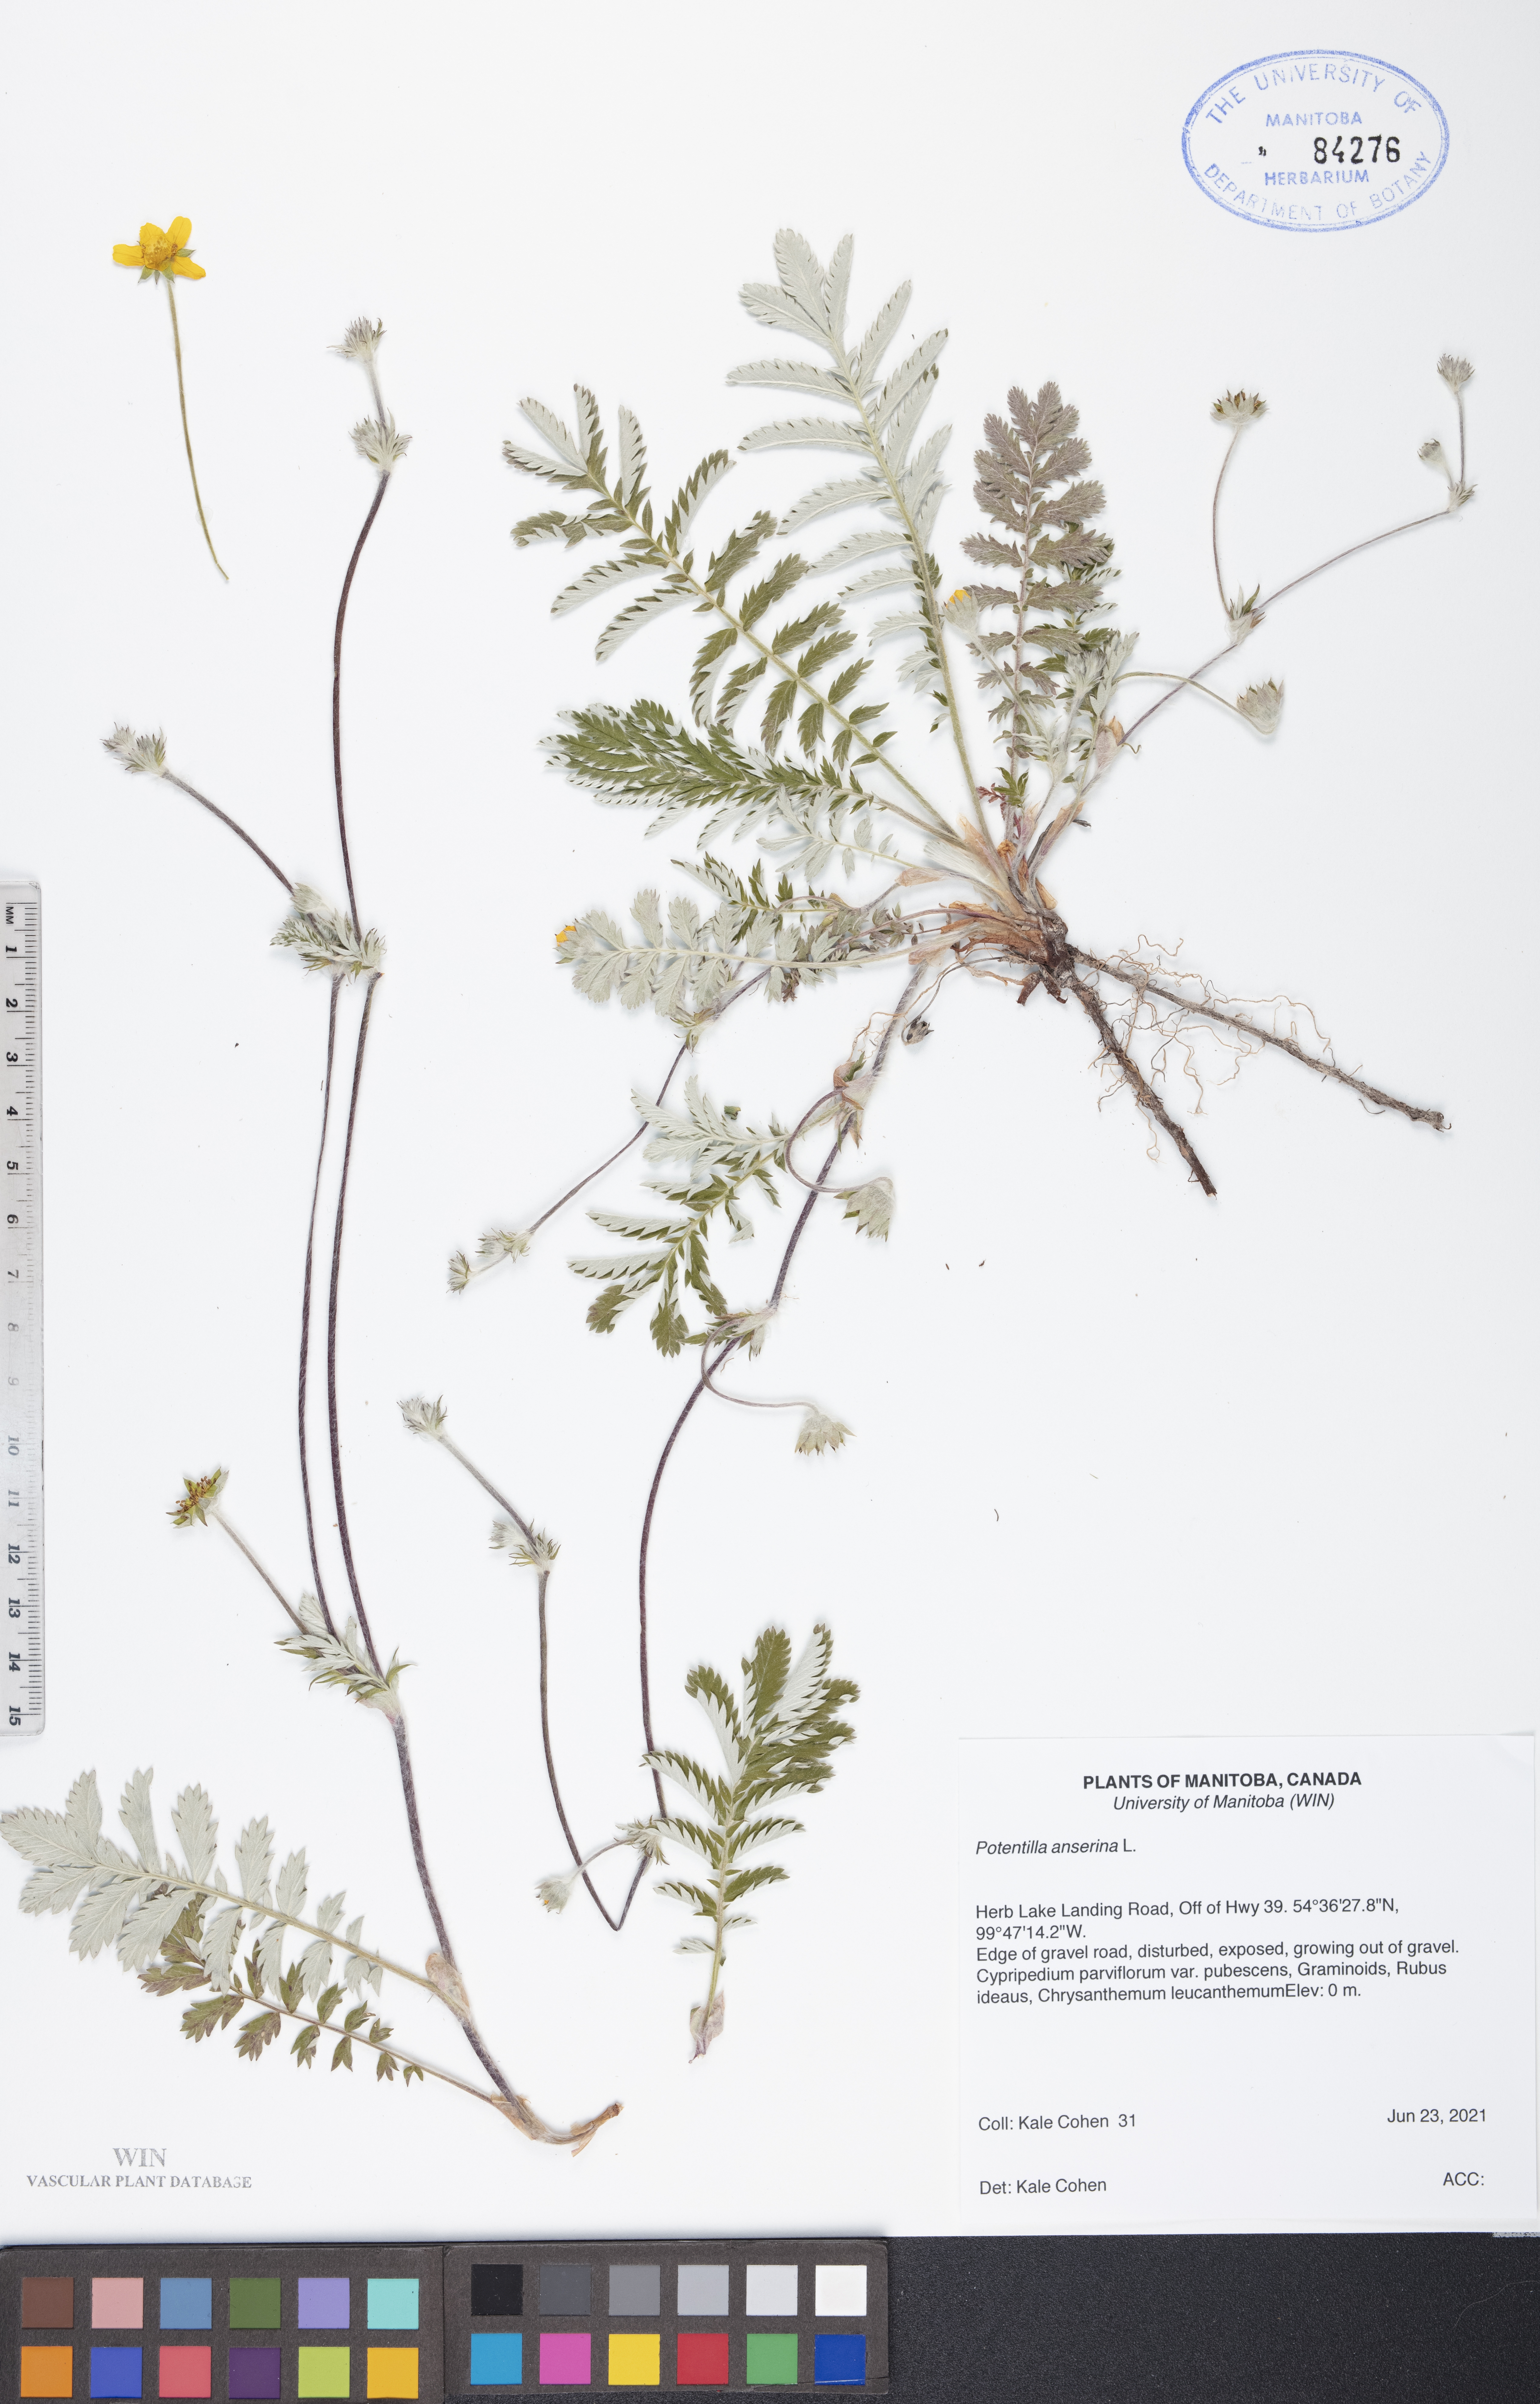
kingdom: Plantae
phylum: Tracheophyta
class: Magnoliopsida
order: Rosales
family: Rosaceae
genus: Argentina
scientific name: Argentina anserina
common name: Common silverweed
